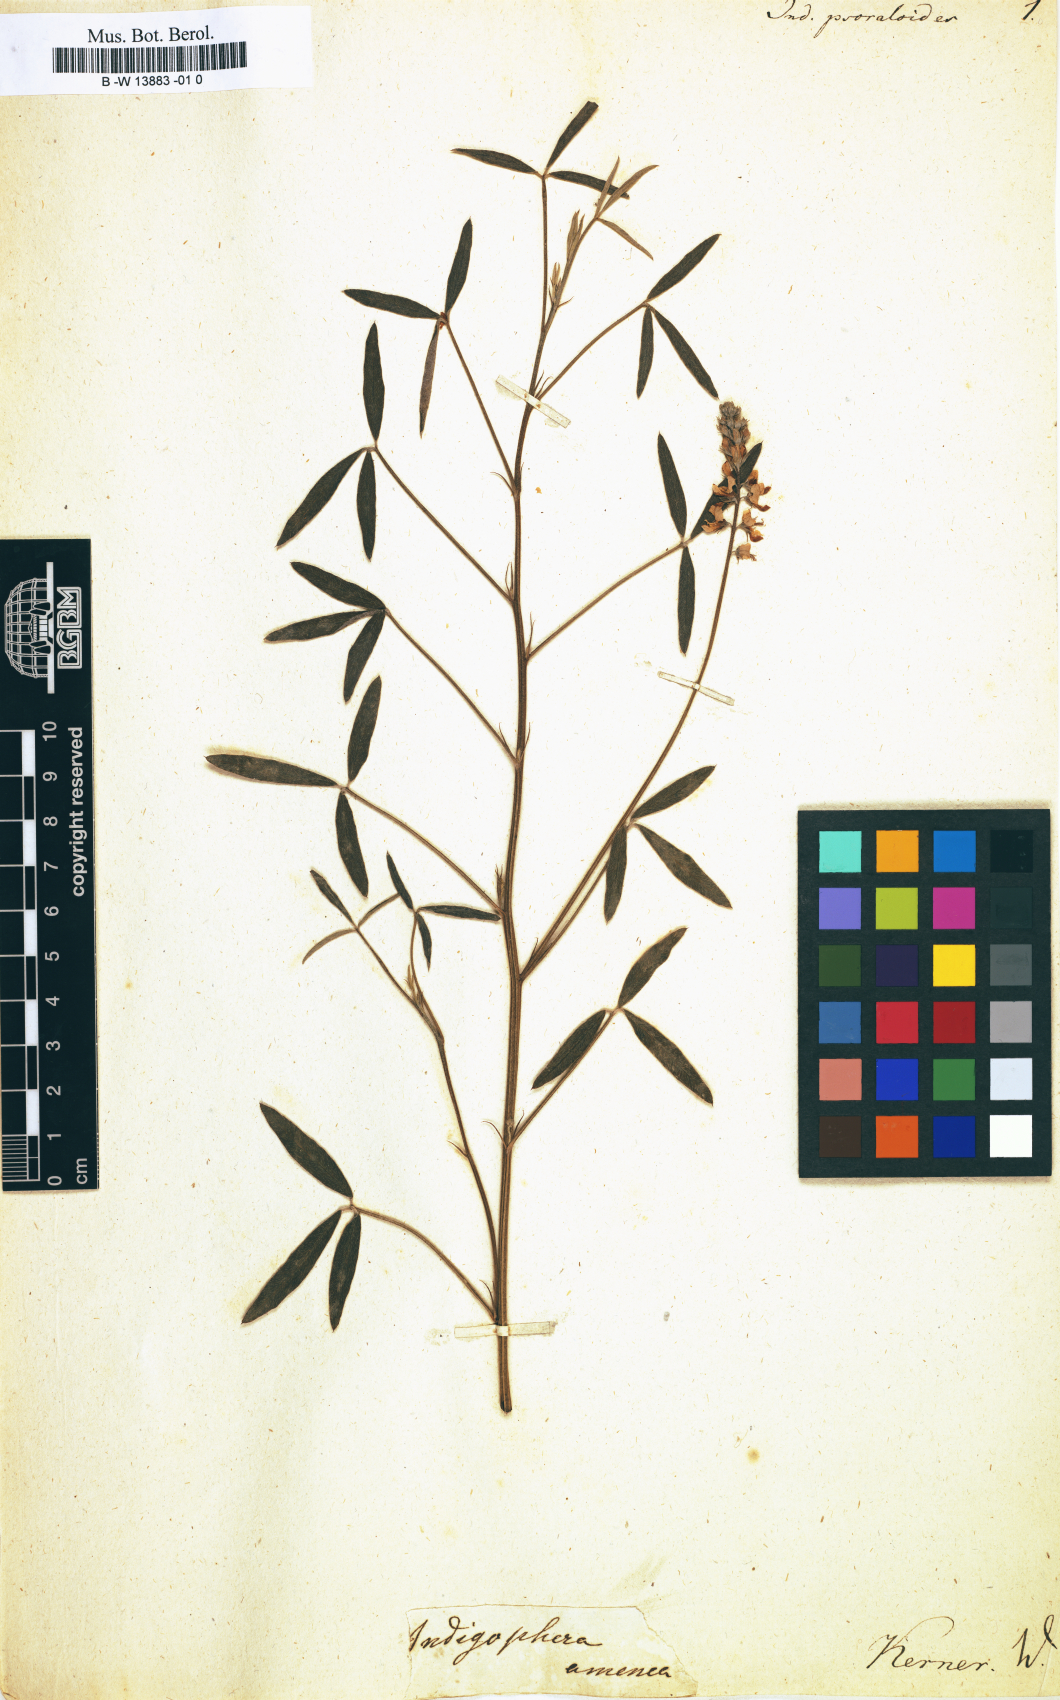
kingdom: Plantae
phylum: Tracheophyta
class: Magnoliopsida
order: Fabales
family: Fabaceae
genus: Indigofera
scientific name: Indigofera psoraloides
